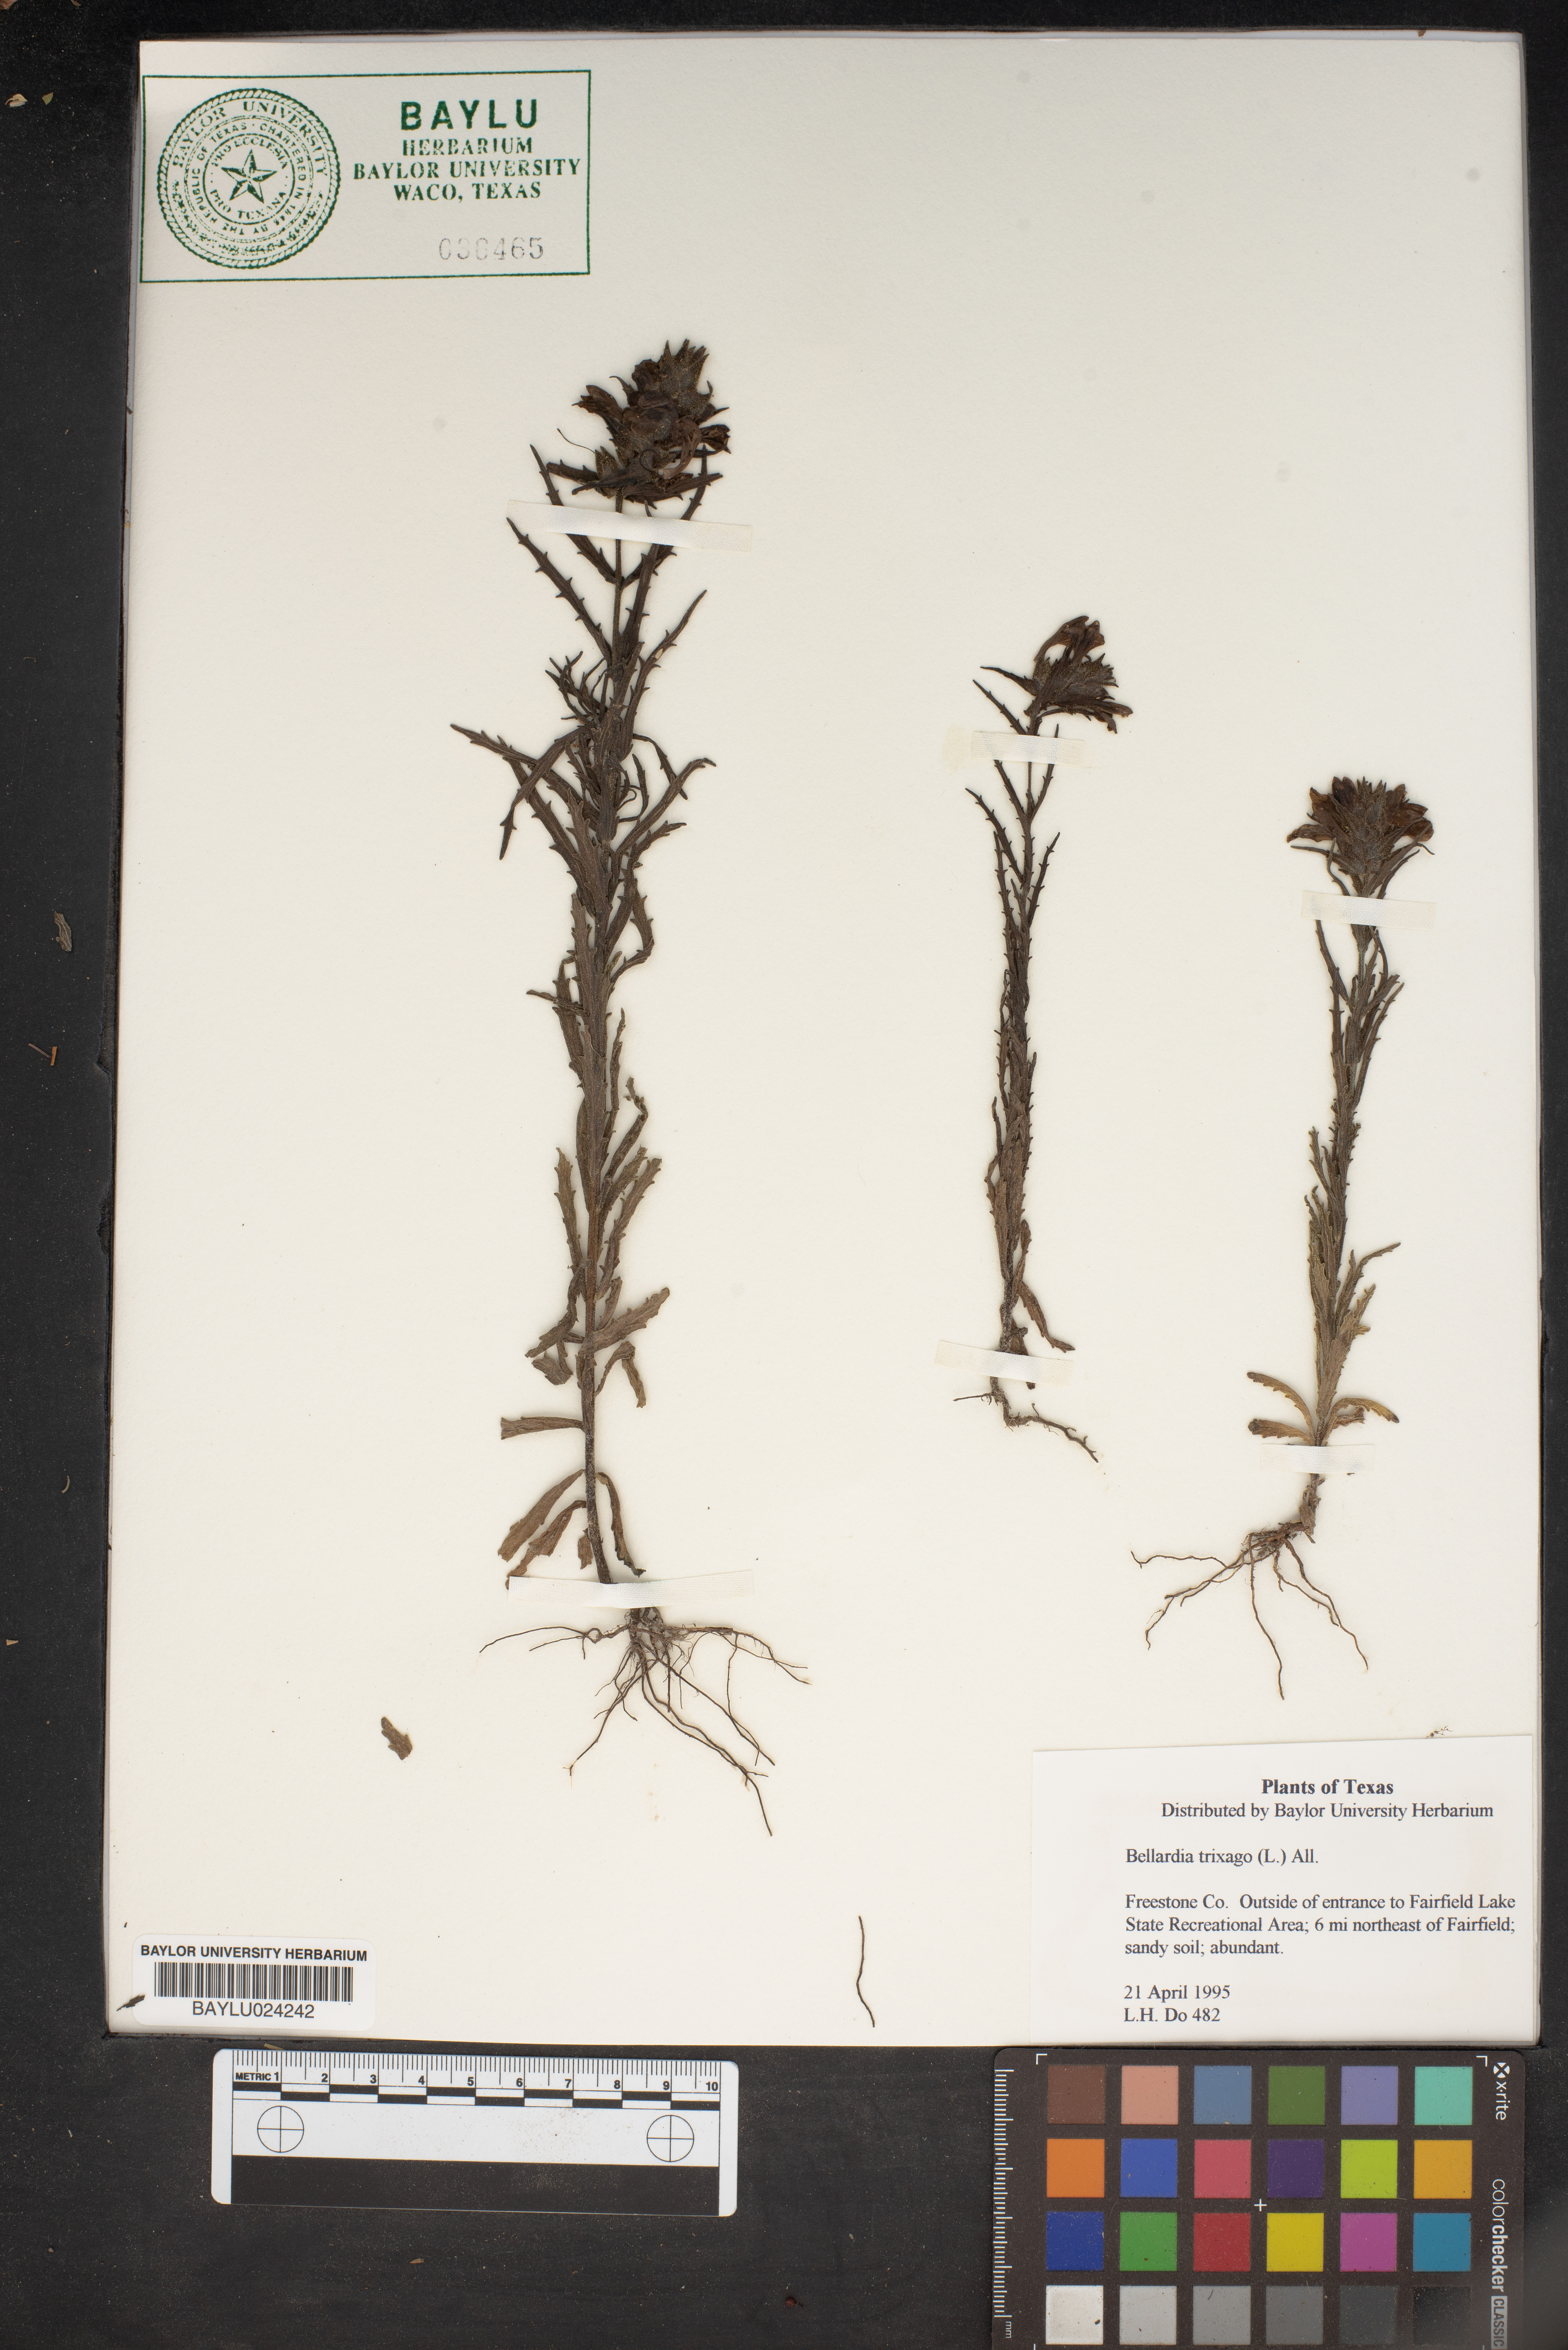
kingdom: Plantae
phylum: Tracheophyta
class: Magnoliopsida
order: Lamiales
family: Orobanchaceae
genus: Bellardia
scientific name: Bellardia trixago
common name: Mediterranean lineseed
